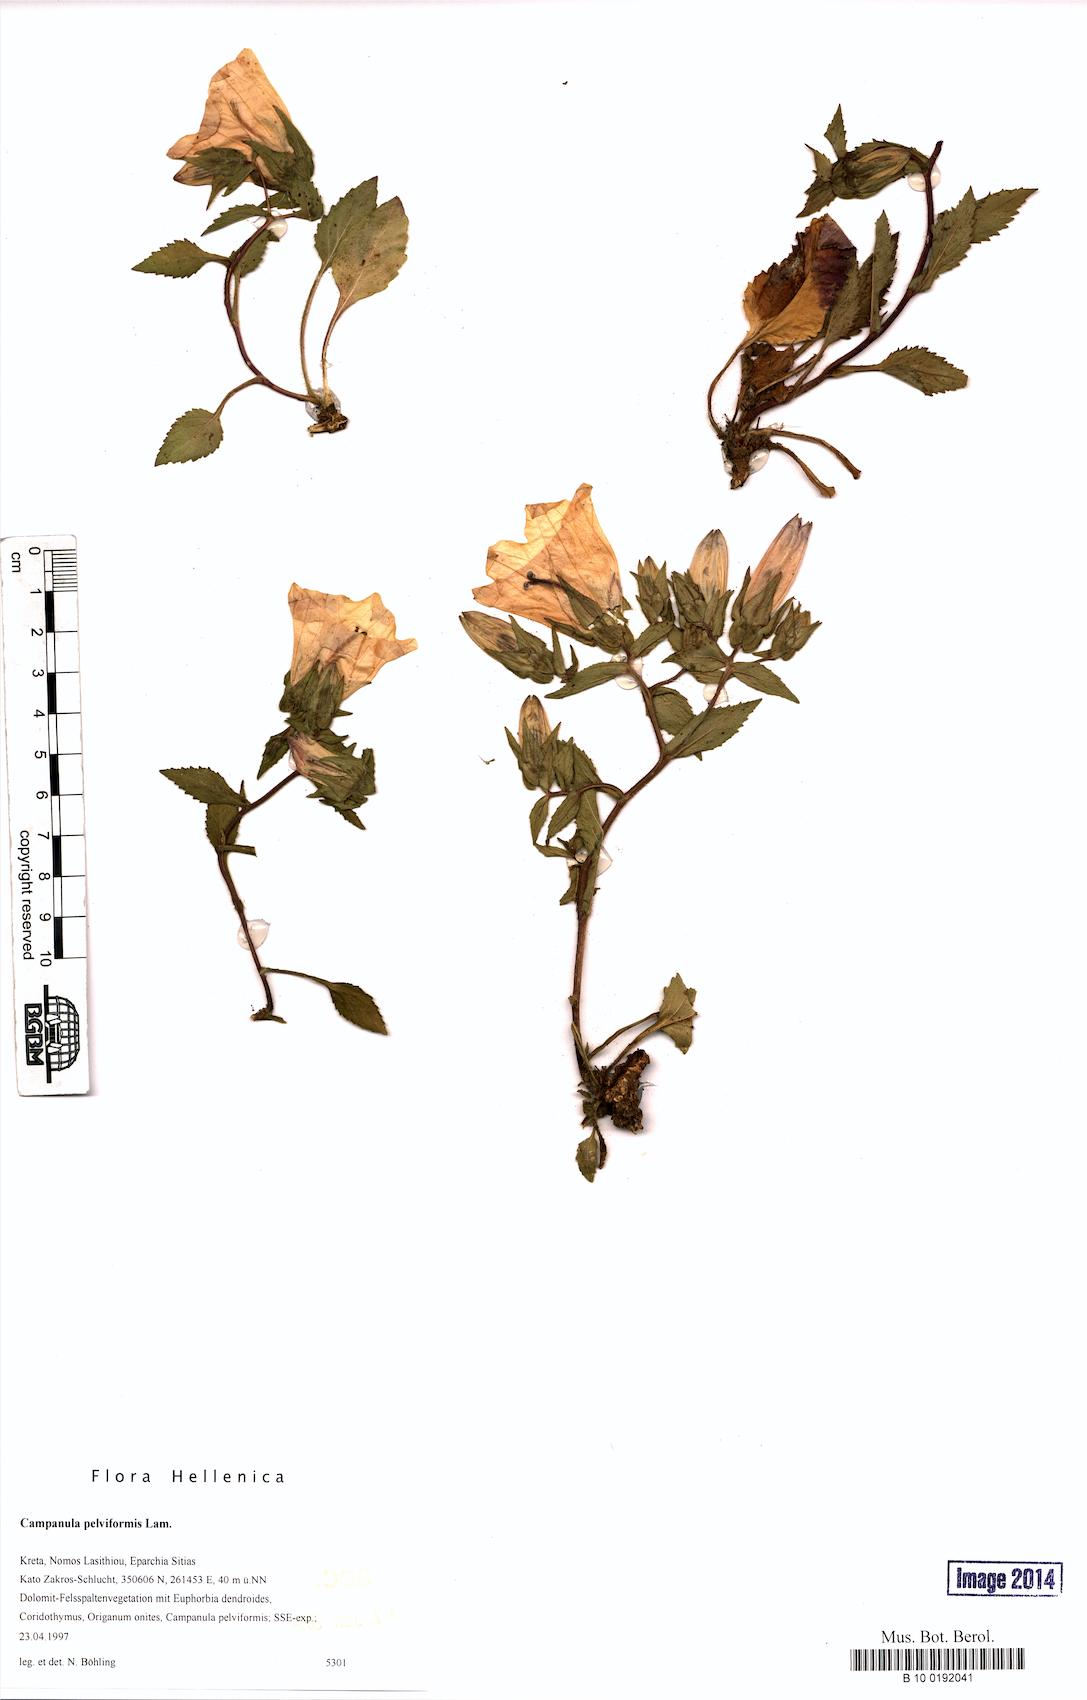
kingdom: Plantae
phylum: Tracheophyta
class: Magnoliopsida
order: Asterales
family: Campanulaceae
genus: Campanula
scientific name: Campanula pelviformis
